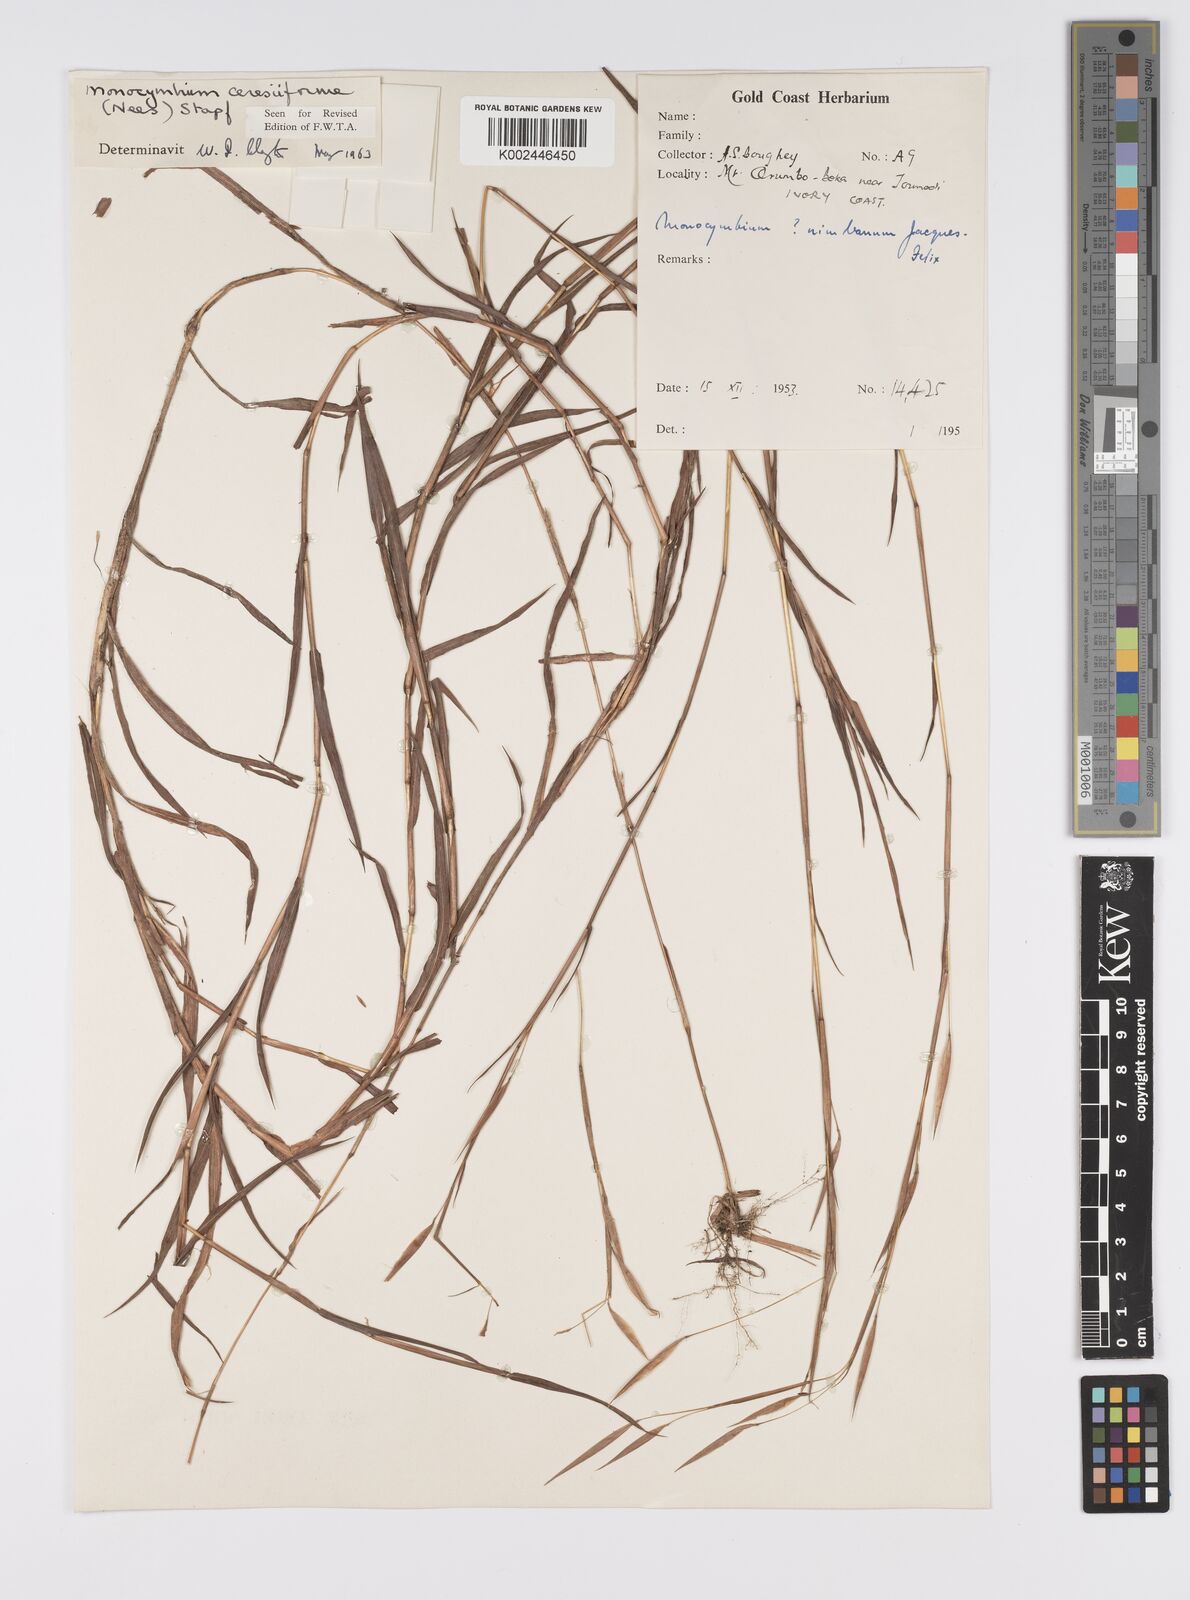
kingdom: Plantae
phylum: Tracheophyta
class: Liliopsida
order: Poales
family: Poaceae
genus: Monocymbium
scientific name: Monocymbium ceresiiforme
